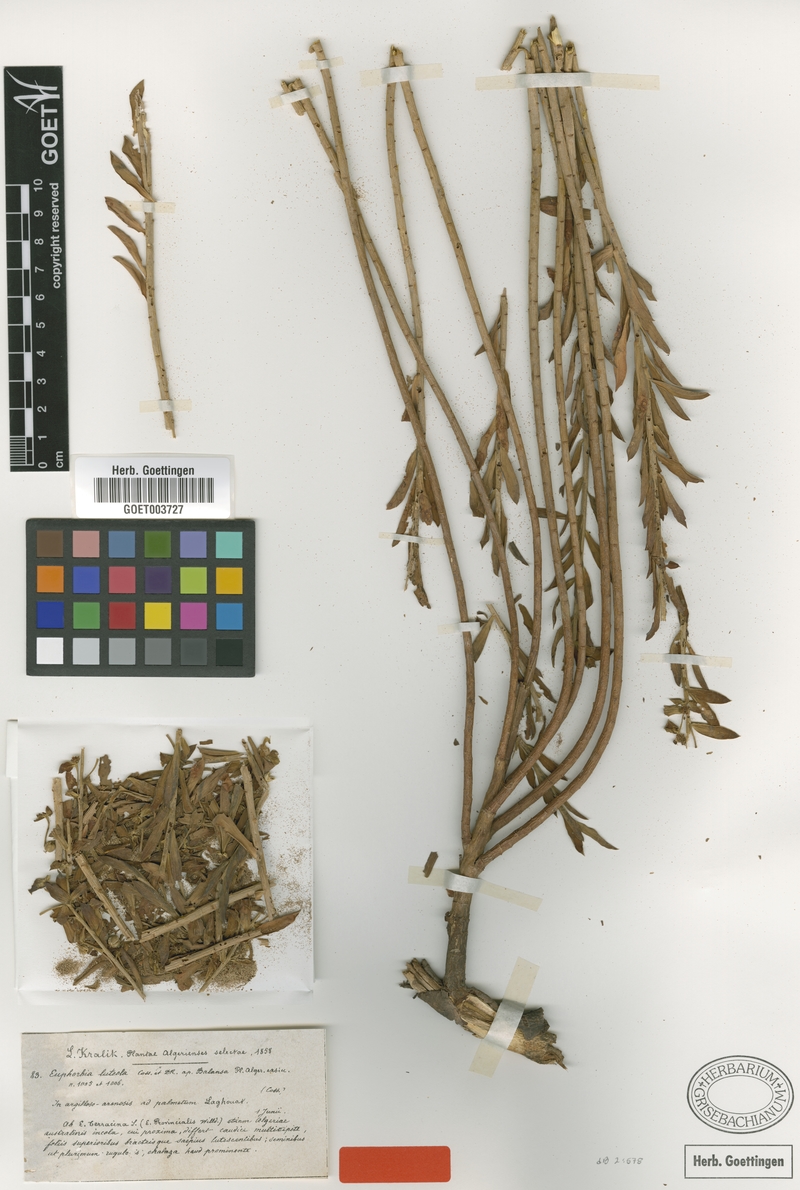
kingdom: Plantae
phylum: Tracheophyta
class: Magnoliopsida
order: Malpighiales
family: Euphorbiaceae
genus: Euphorbia
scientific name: Euphorbia luteola
